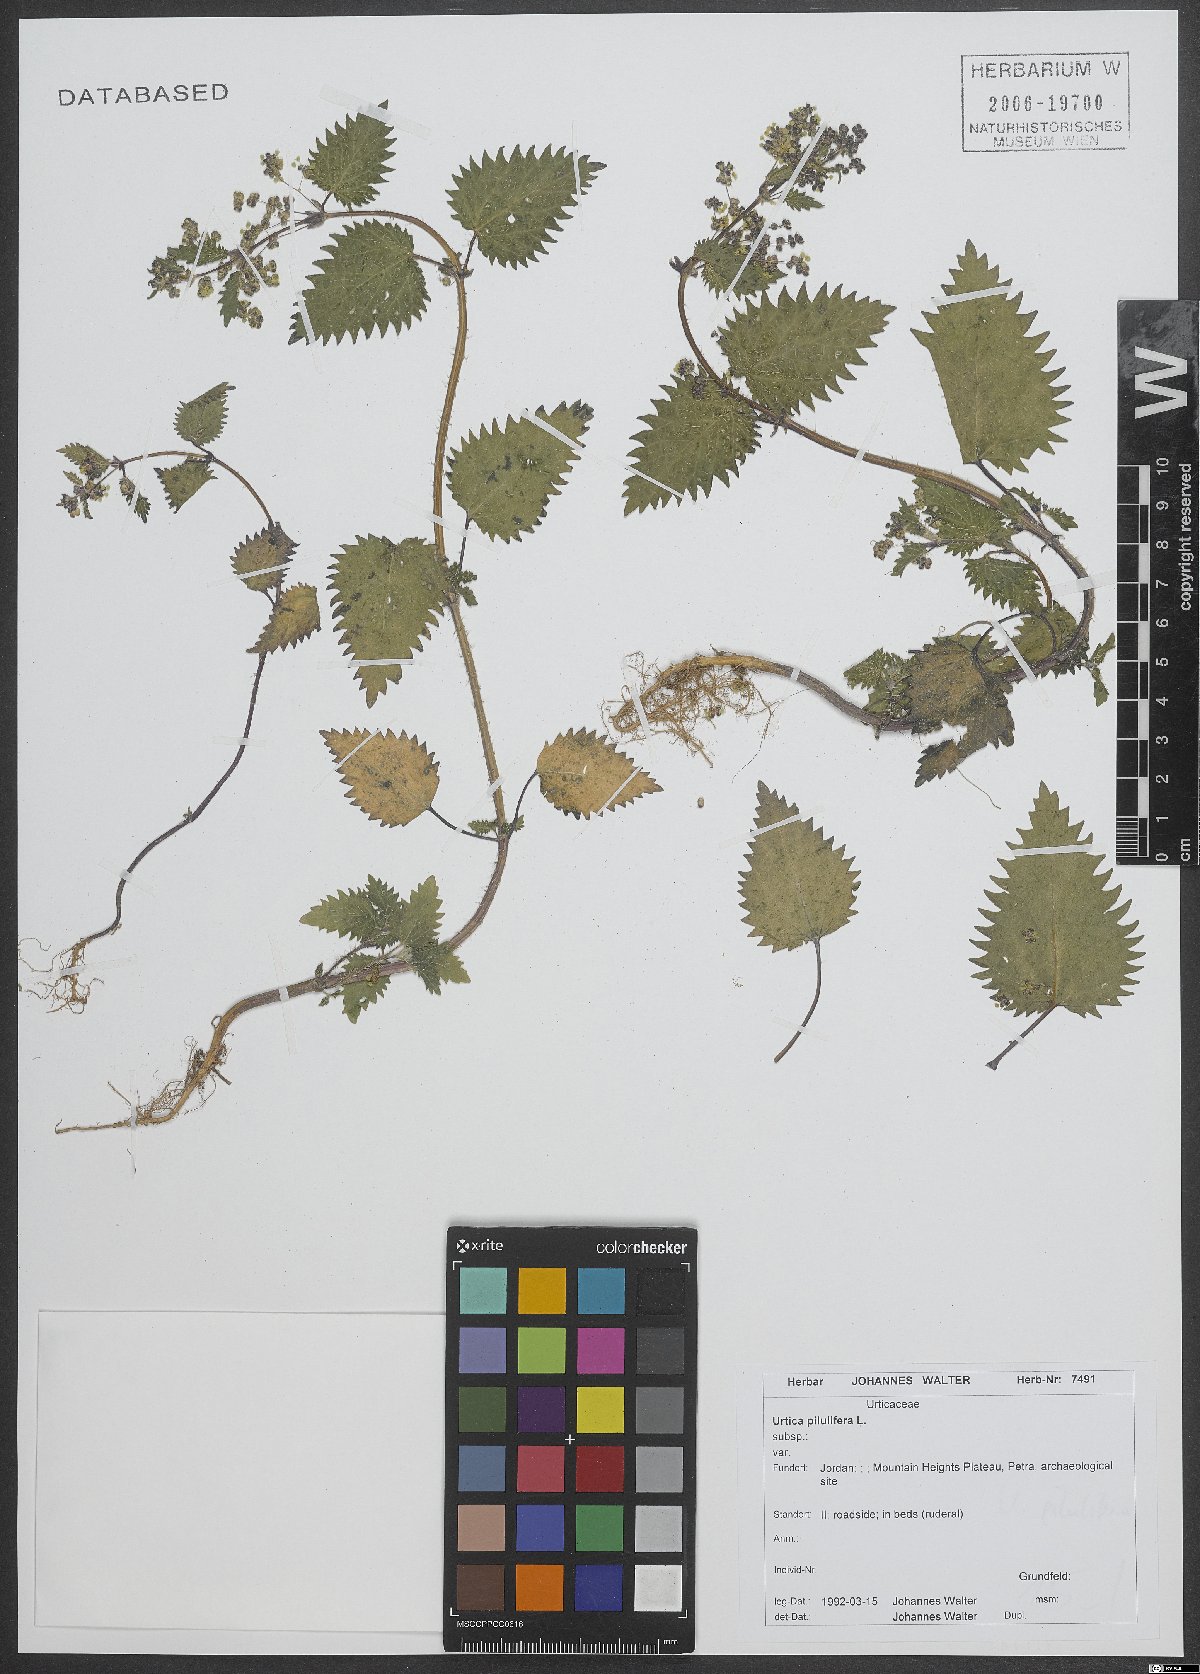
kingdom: Plantae
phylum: Tracheophyta
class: Magnoliopsida
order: Rosales
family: Urticaceae
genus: Urtica
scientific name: Urtica pilulifera
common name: Roman nettle
